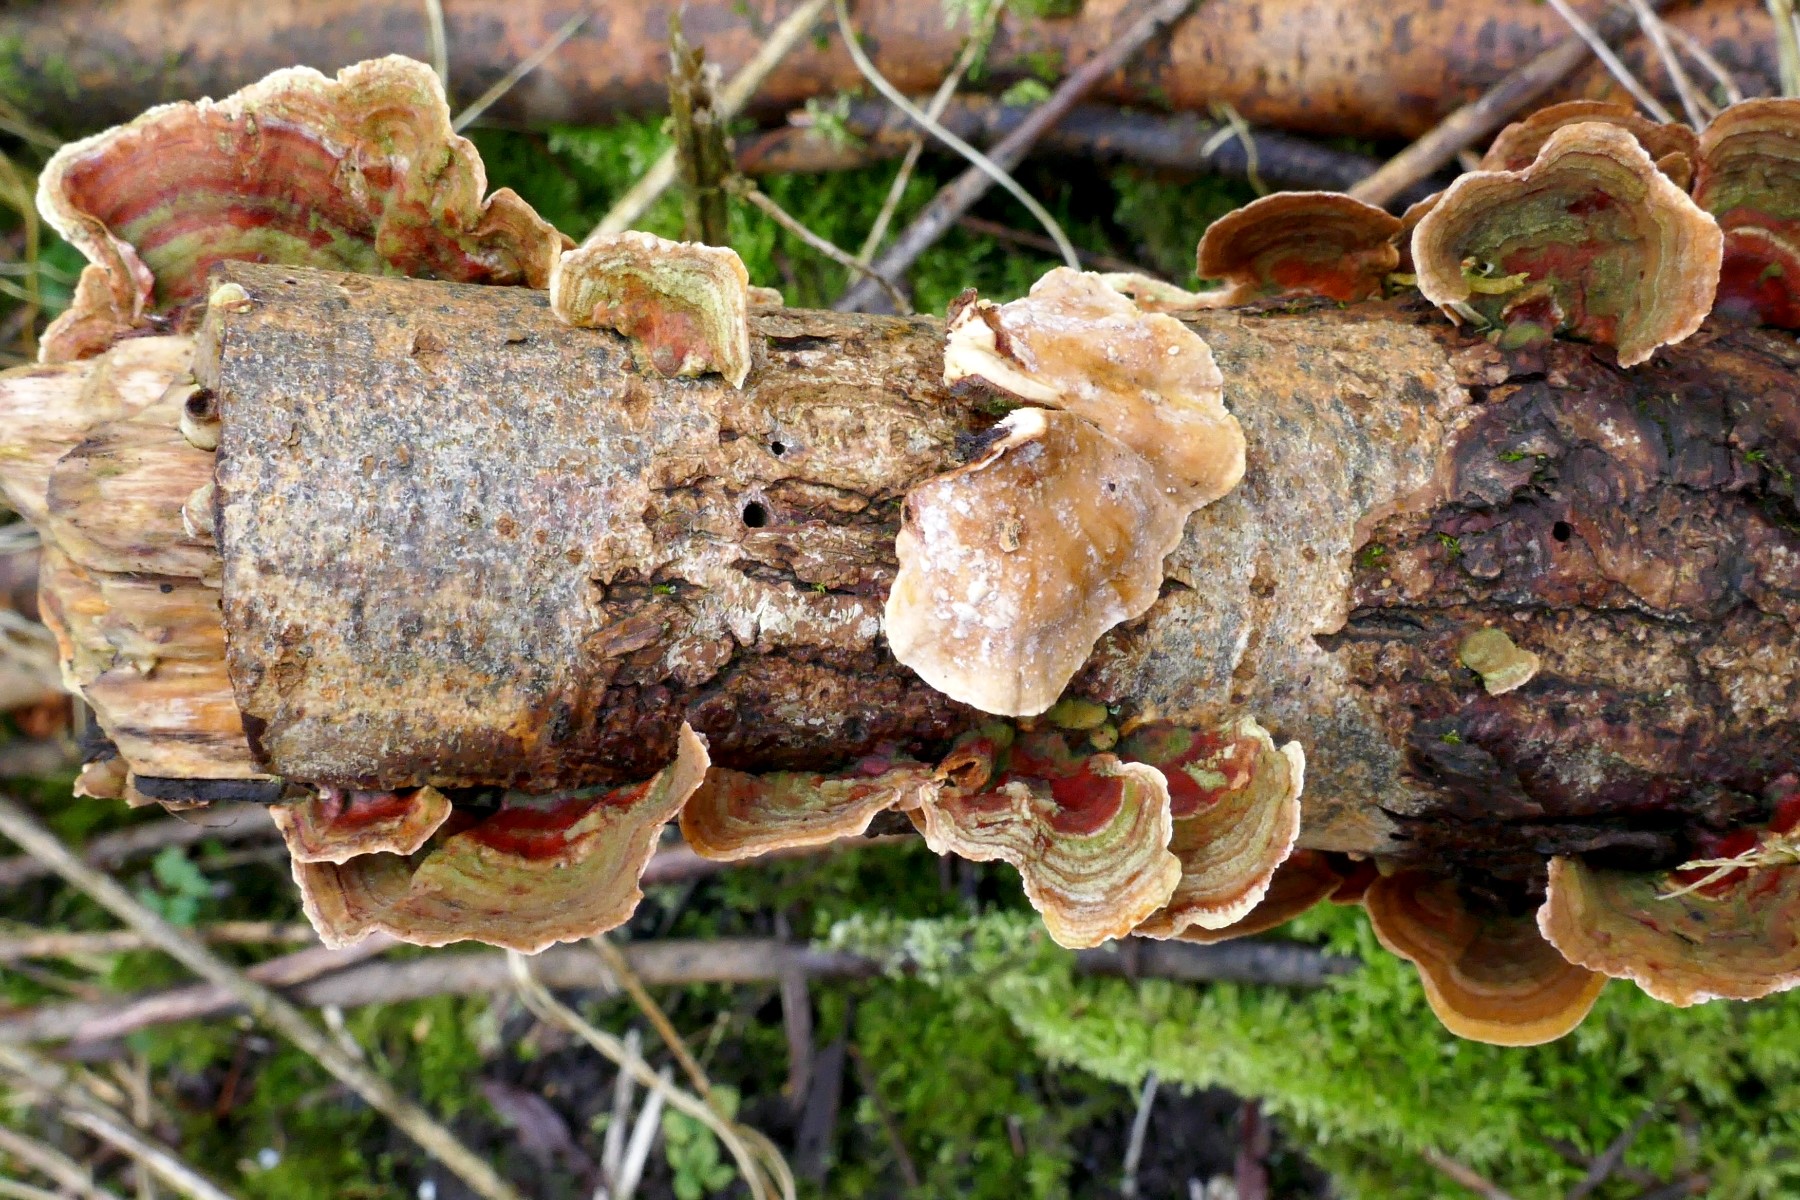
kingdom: Fungi
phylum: Basidiomycota
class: Agaricomycetes
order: Russulales
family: Stereaceae
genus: Stereum
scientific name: Stereum subtomentosum
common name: smuk lædersvamp
